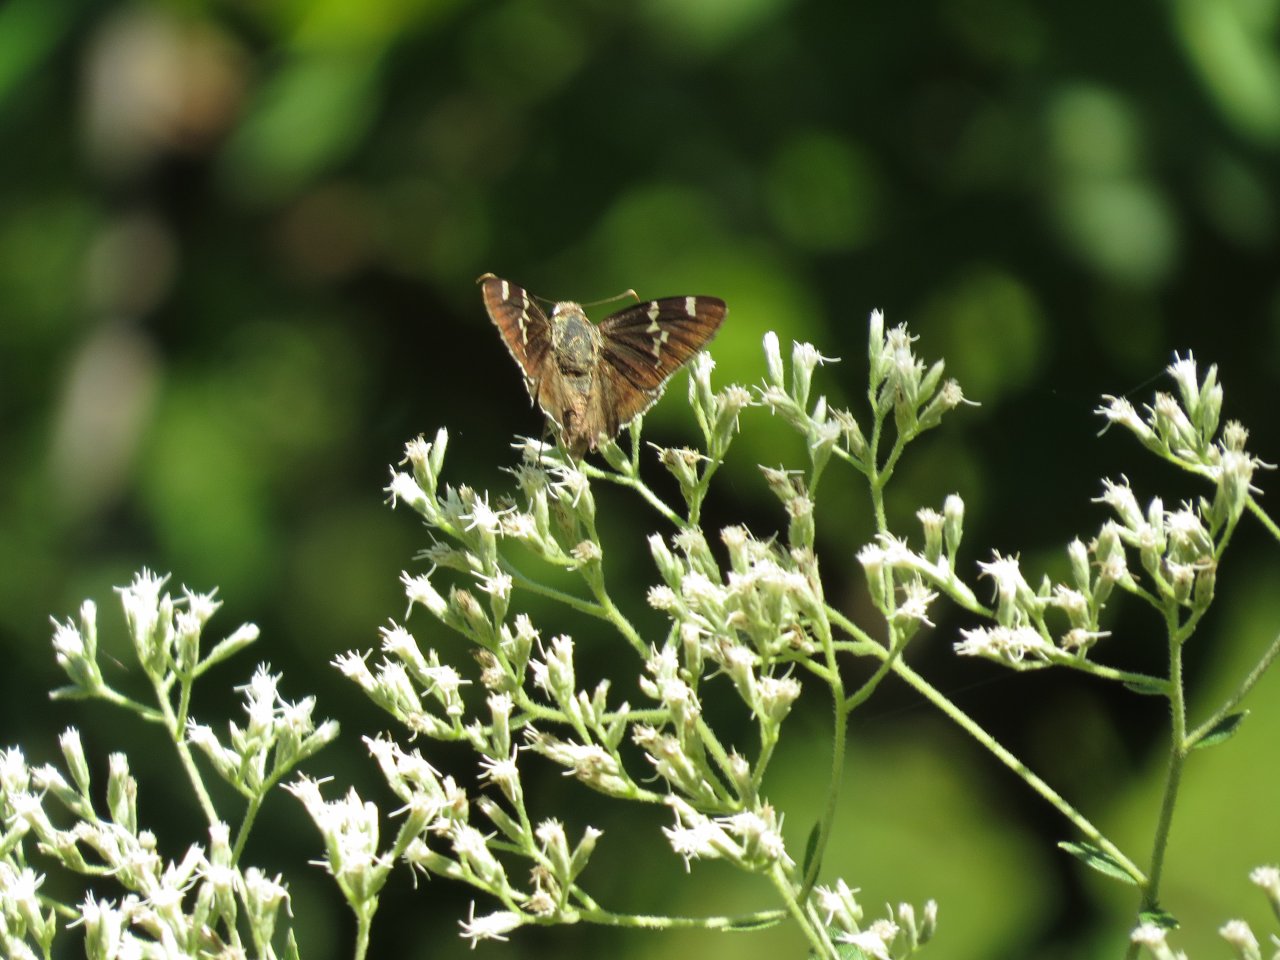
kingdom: Animalia
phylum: Arthropoda
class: Insecta
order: Lepidoptera
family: Hesperiidae
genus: Autochton
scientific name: Autochton
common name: Southern Cloudywing
